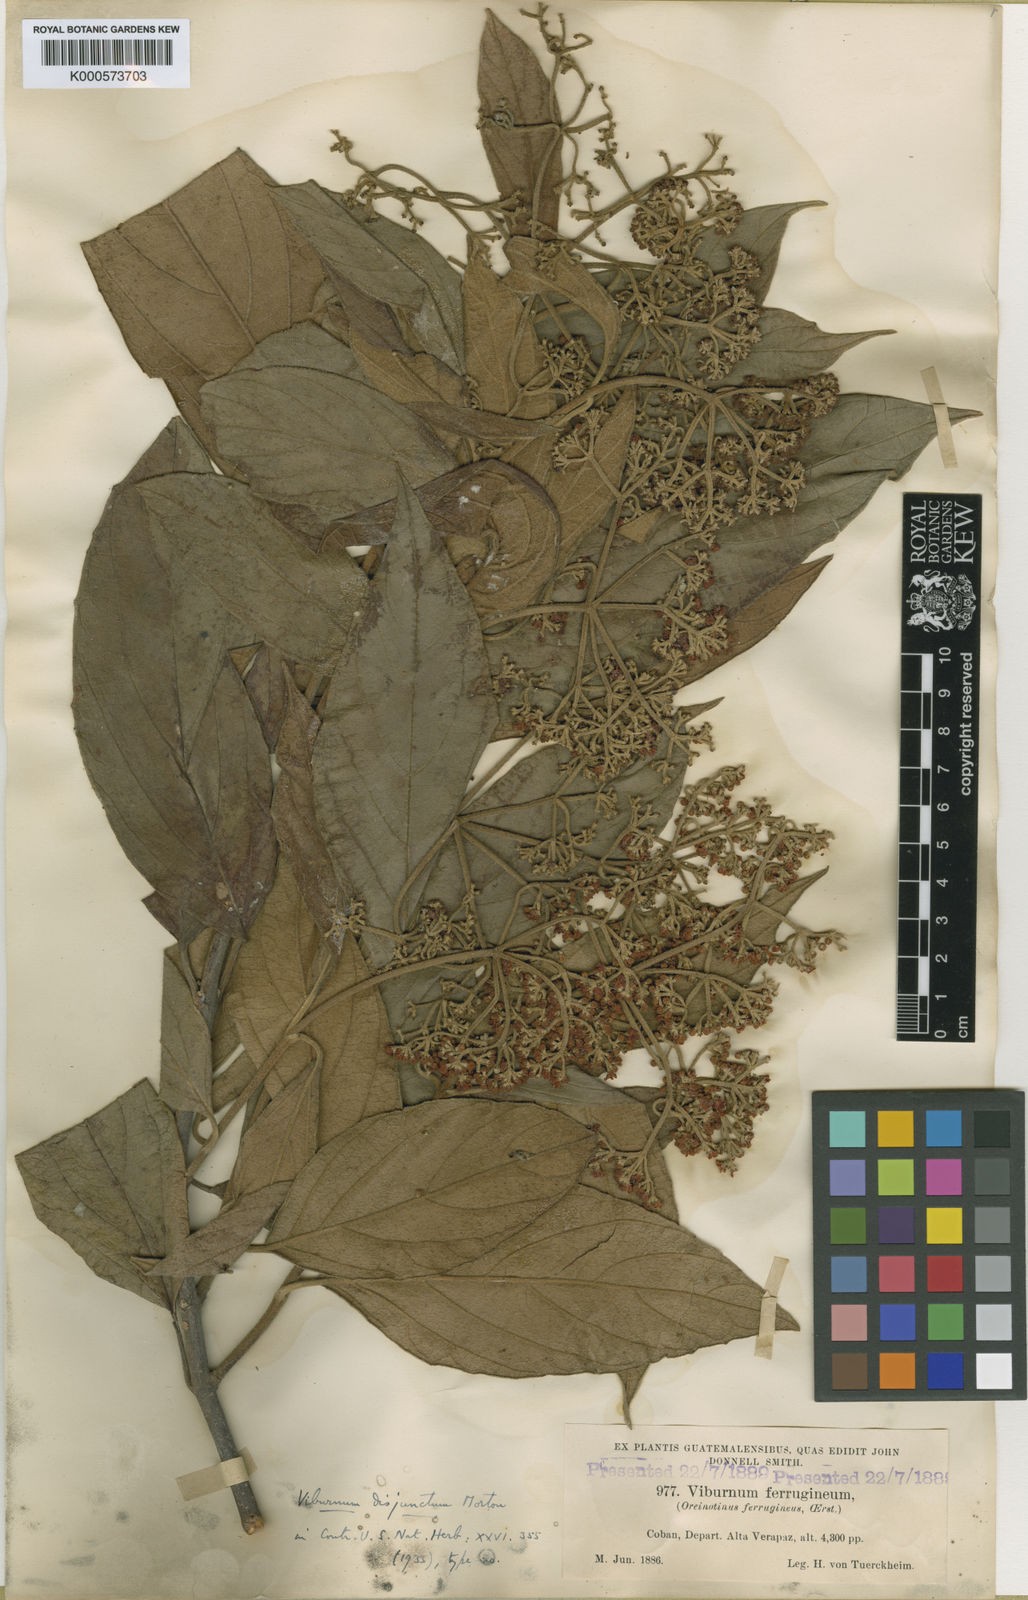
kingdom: Plantae
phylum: Tracheophyta
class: Magnoliopsida
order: Dipsacales
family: Viburnaceae
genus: Viburnum
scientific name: Viburnum disjunctum
